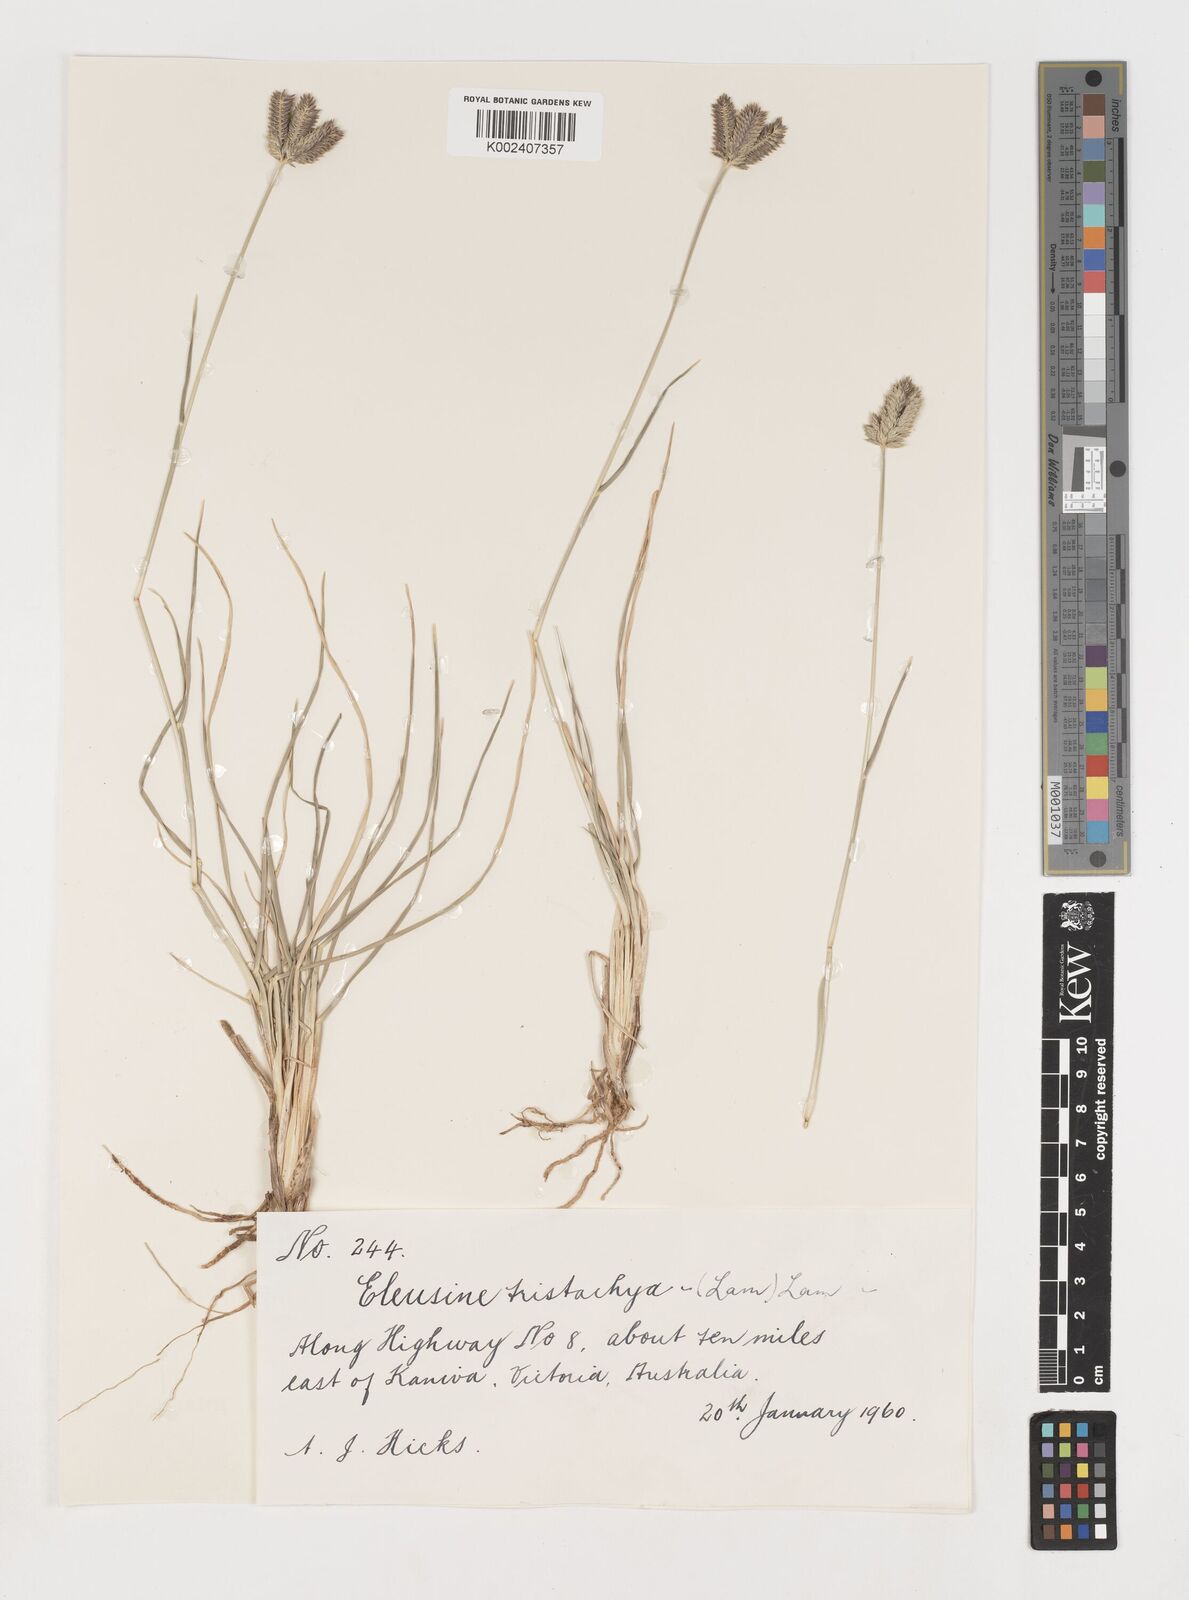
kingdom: Plantae
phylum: Tracheophyta
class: Liliopsida
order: Poales
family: Poaceae
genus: Eleusine
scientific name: Eleusine tristachya
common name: American yard-grass
